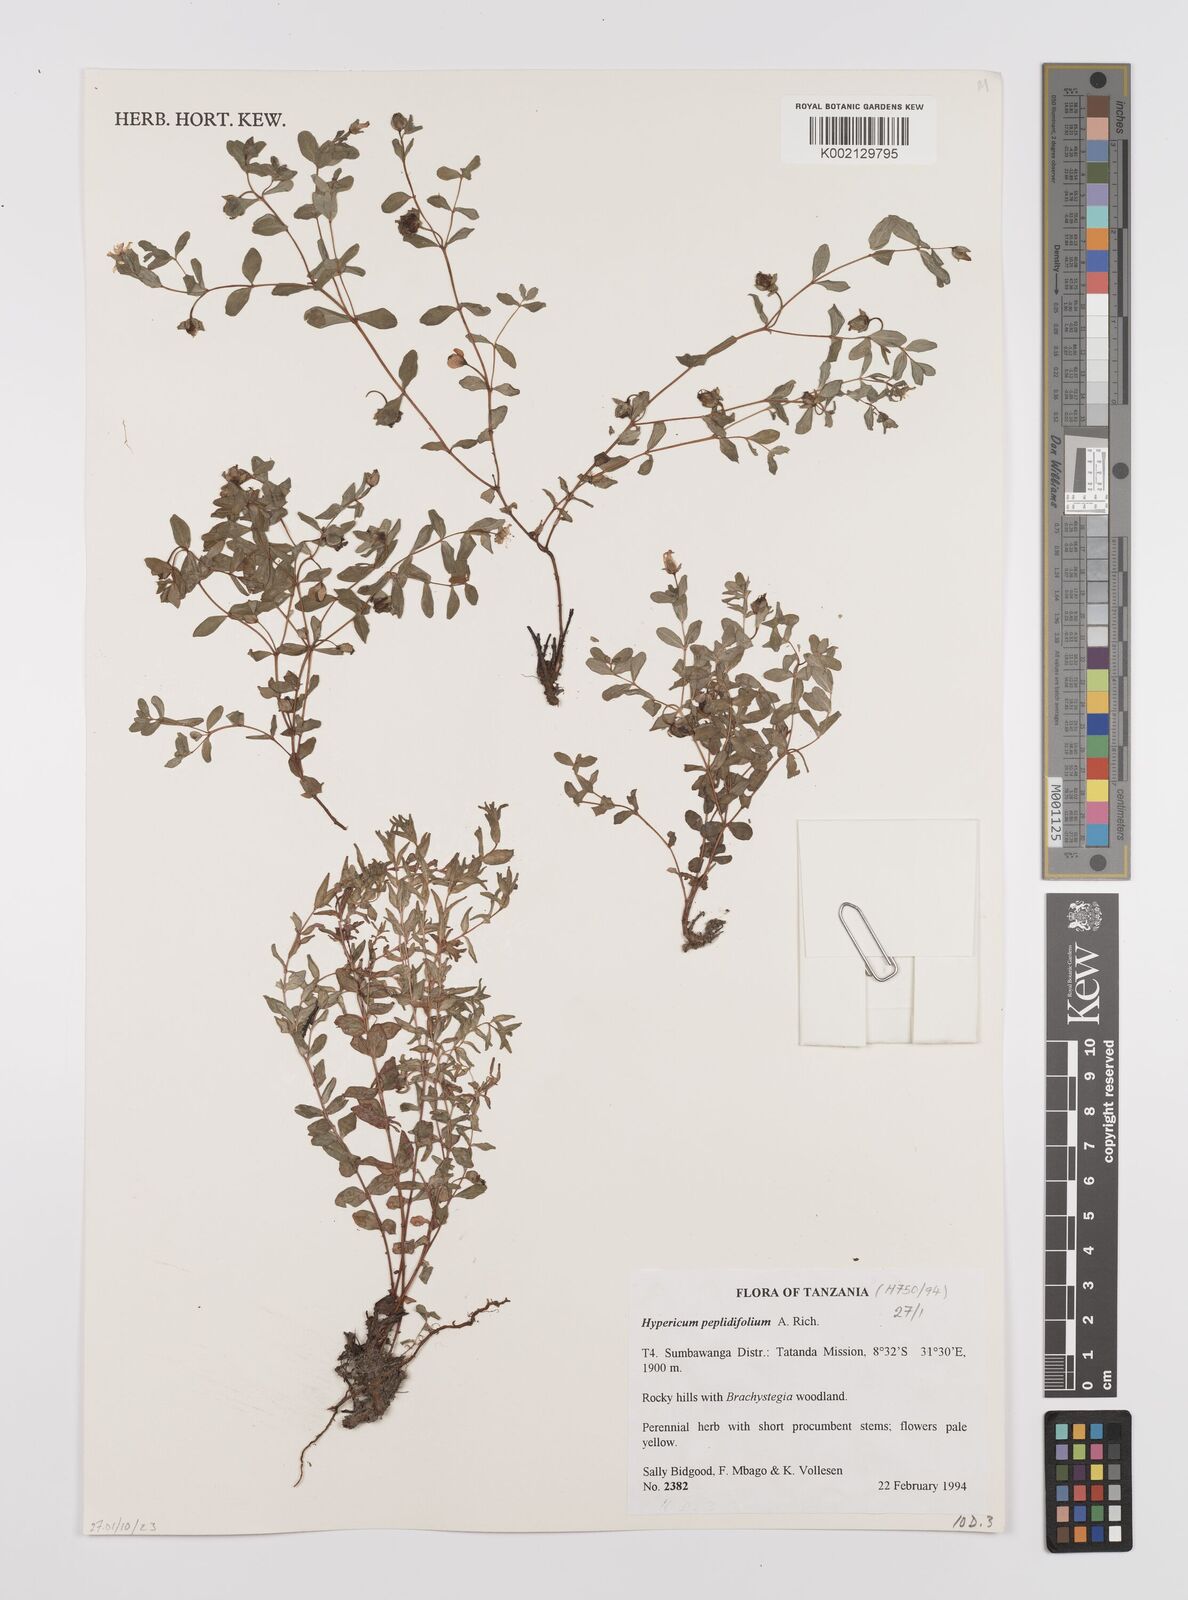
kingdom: Plantae
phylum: Tracheophyta
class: Magnoliopsida
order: Malpighiales
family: Hypericaceae
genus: Hypericum
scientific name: Hypericum peplidifolium
